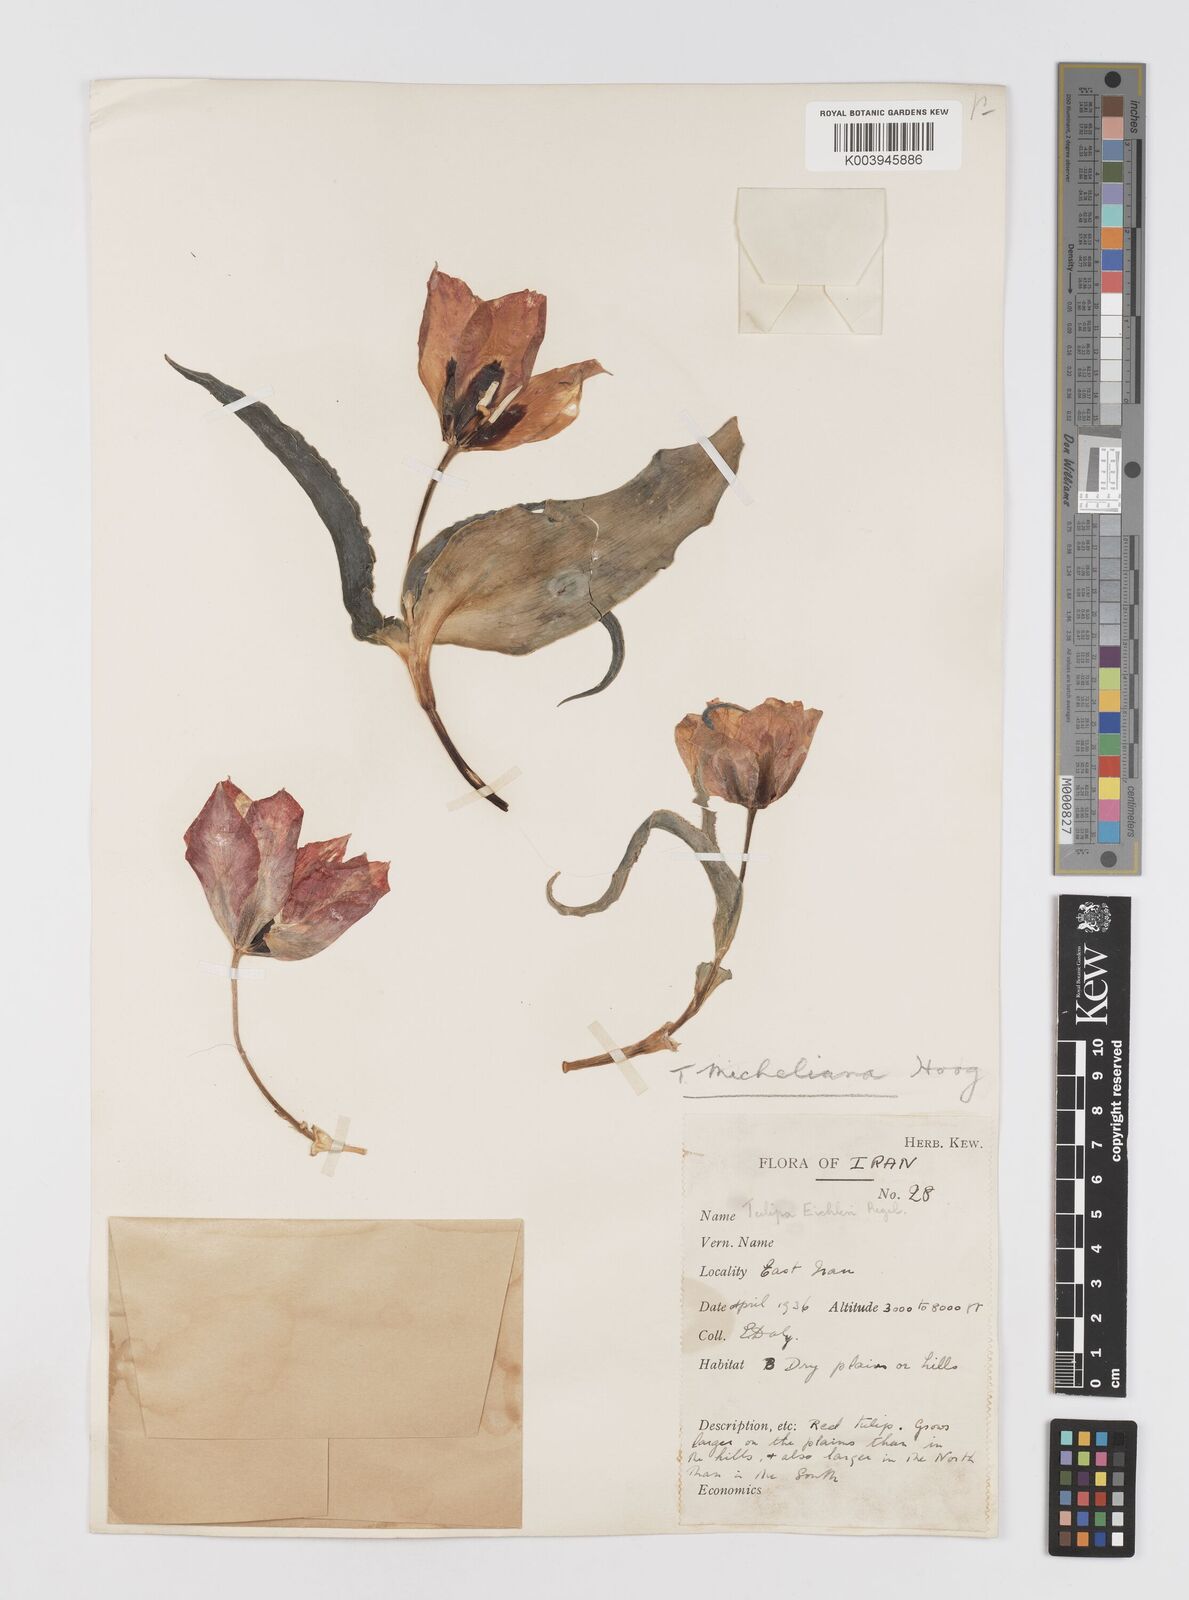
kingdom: Plantae
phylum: Tracheophyta
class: Liliopsida
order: Liliales
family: Liliaceae
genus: Tulipa
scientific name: Tulipa undulatifolia
